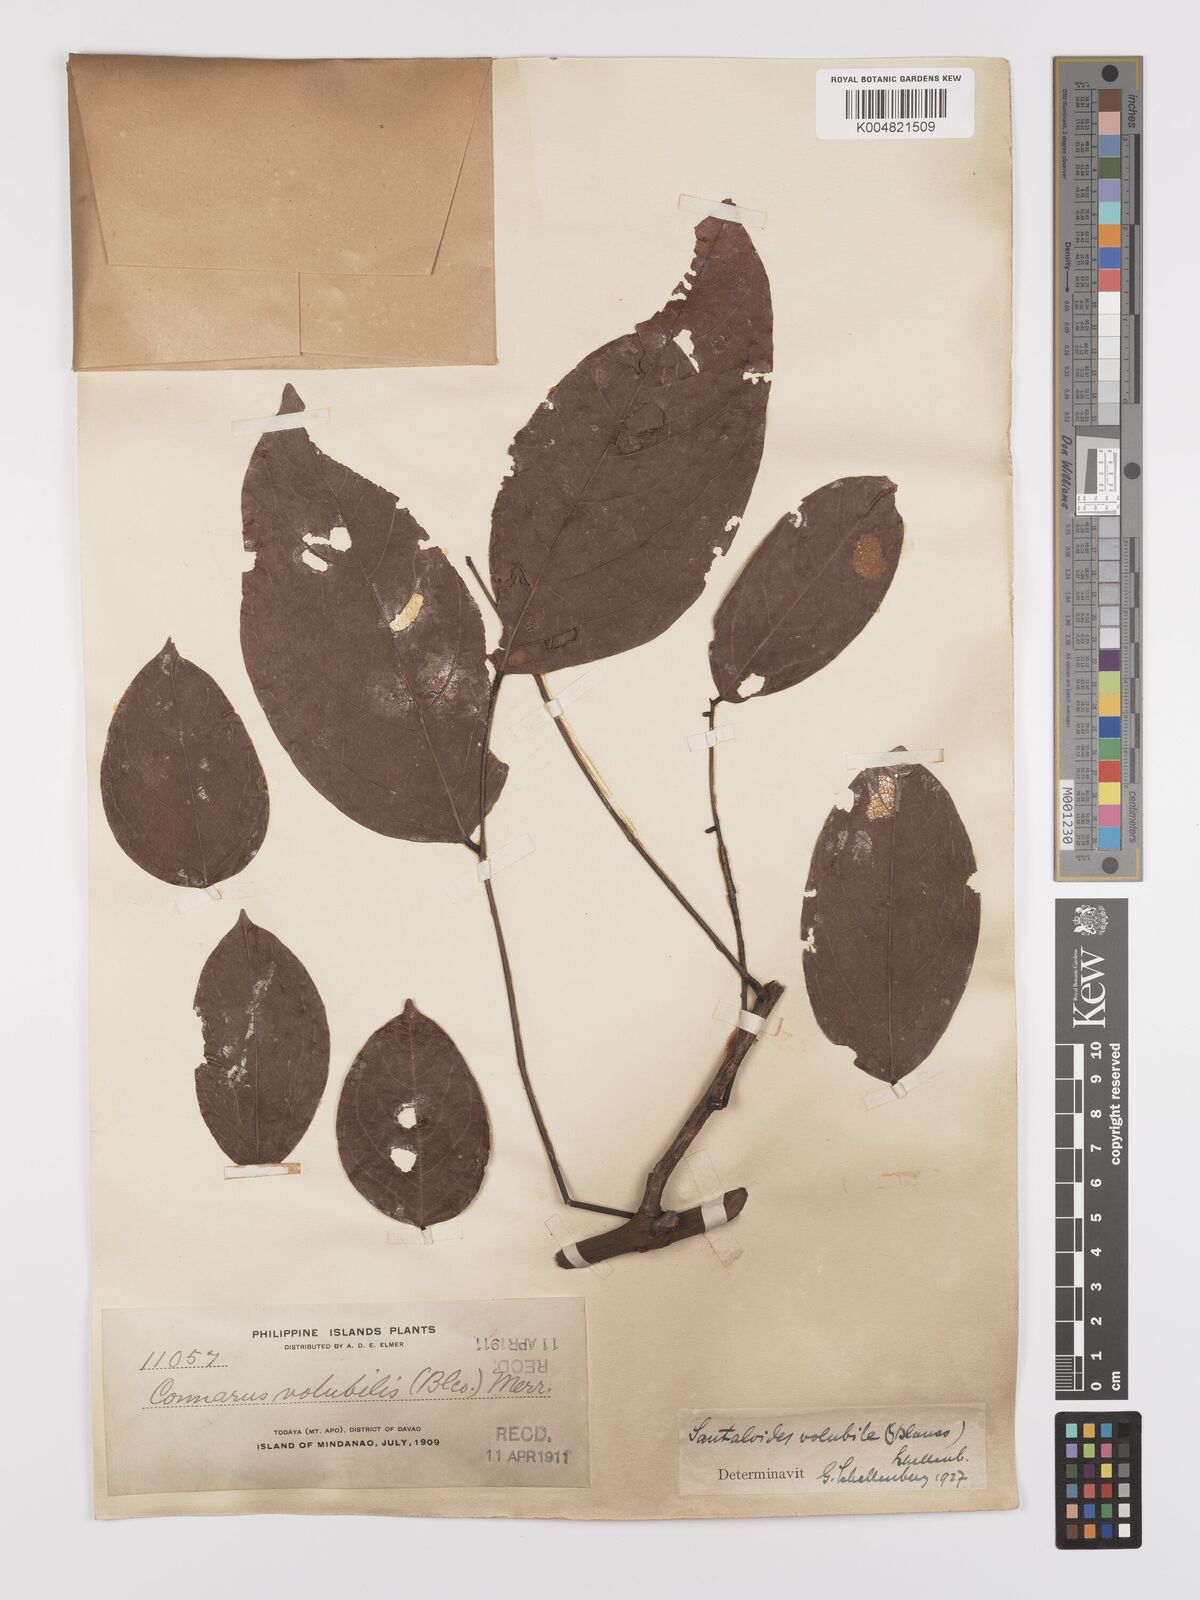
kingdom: Plantae
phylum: Tracheophyta
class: Magnoliopsida
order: Oxalidales
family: Connaraceae
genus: Rourea
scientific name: Rourea minor
